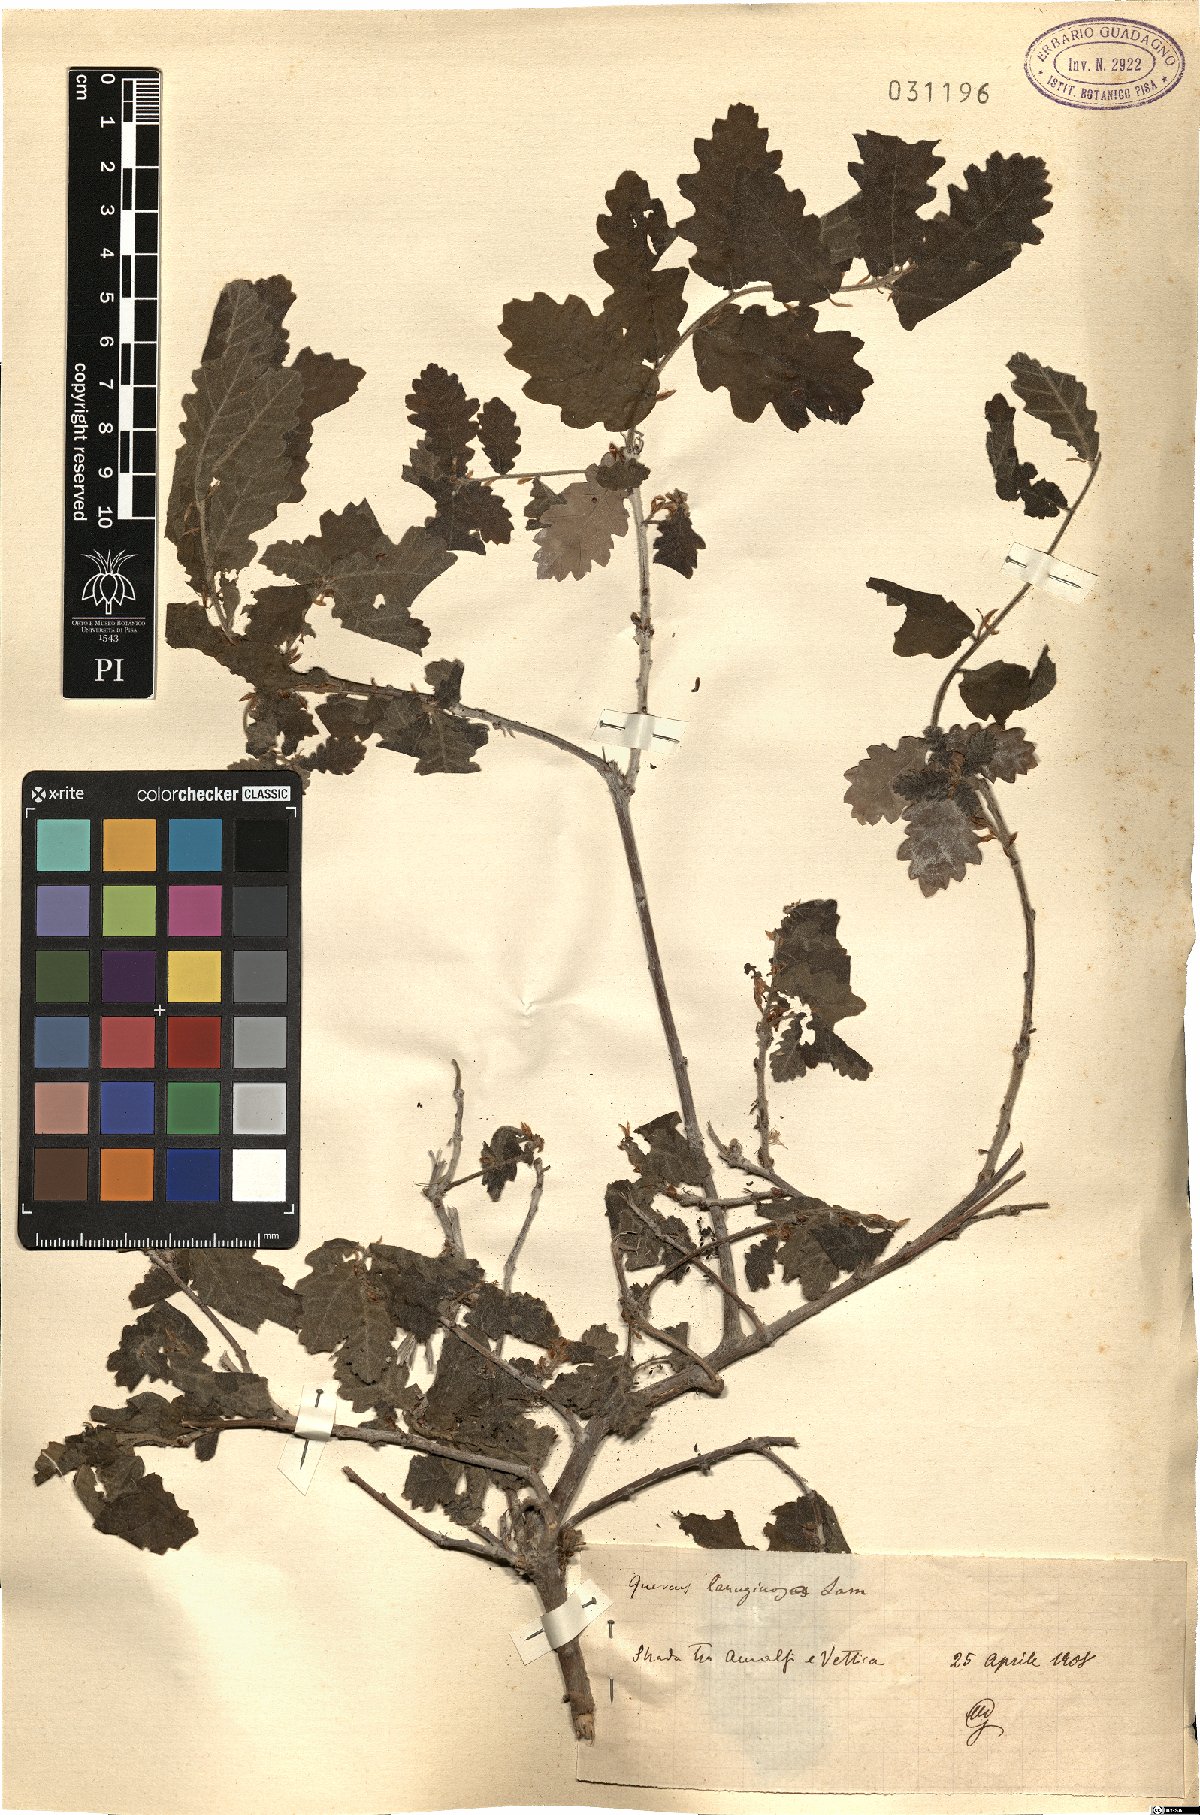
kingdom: Plantae
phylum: Tracheophyta
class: Magnoliopsida
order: Fagales
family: Fagaceae
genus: Quercus
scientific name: Quercus cerris
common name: Turkey oak
